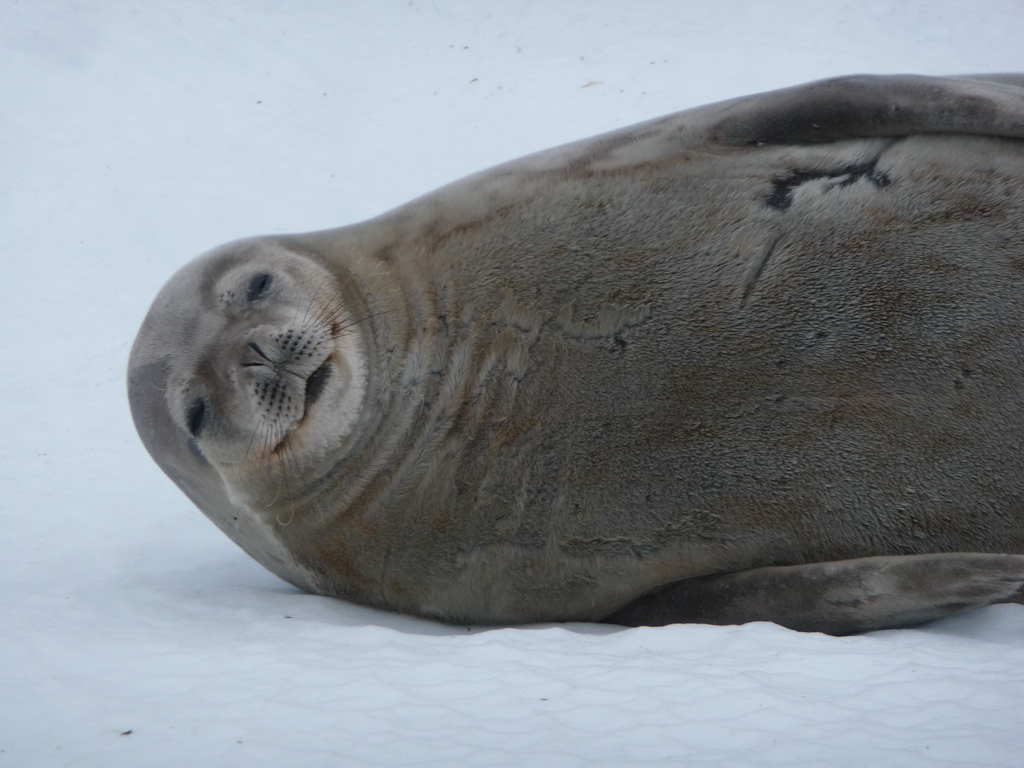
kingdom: Animalia
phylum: Chordata
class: Mammalia
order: Carnivora
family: Phocidae
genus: Leptonychotes
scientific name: Leptonychotes weddellii
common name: Weddell Seal
